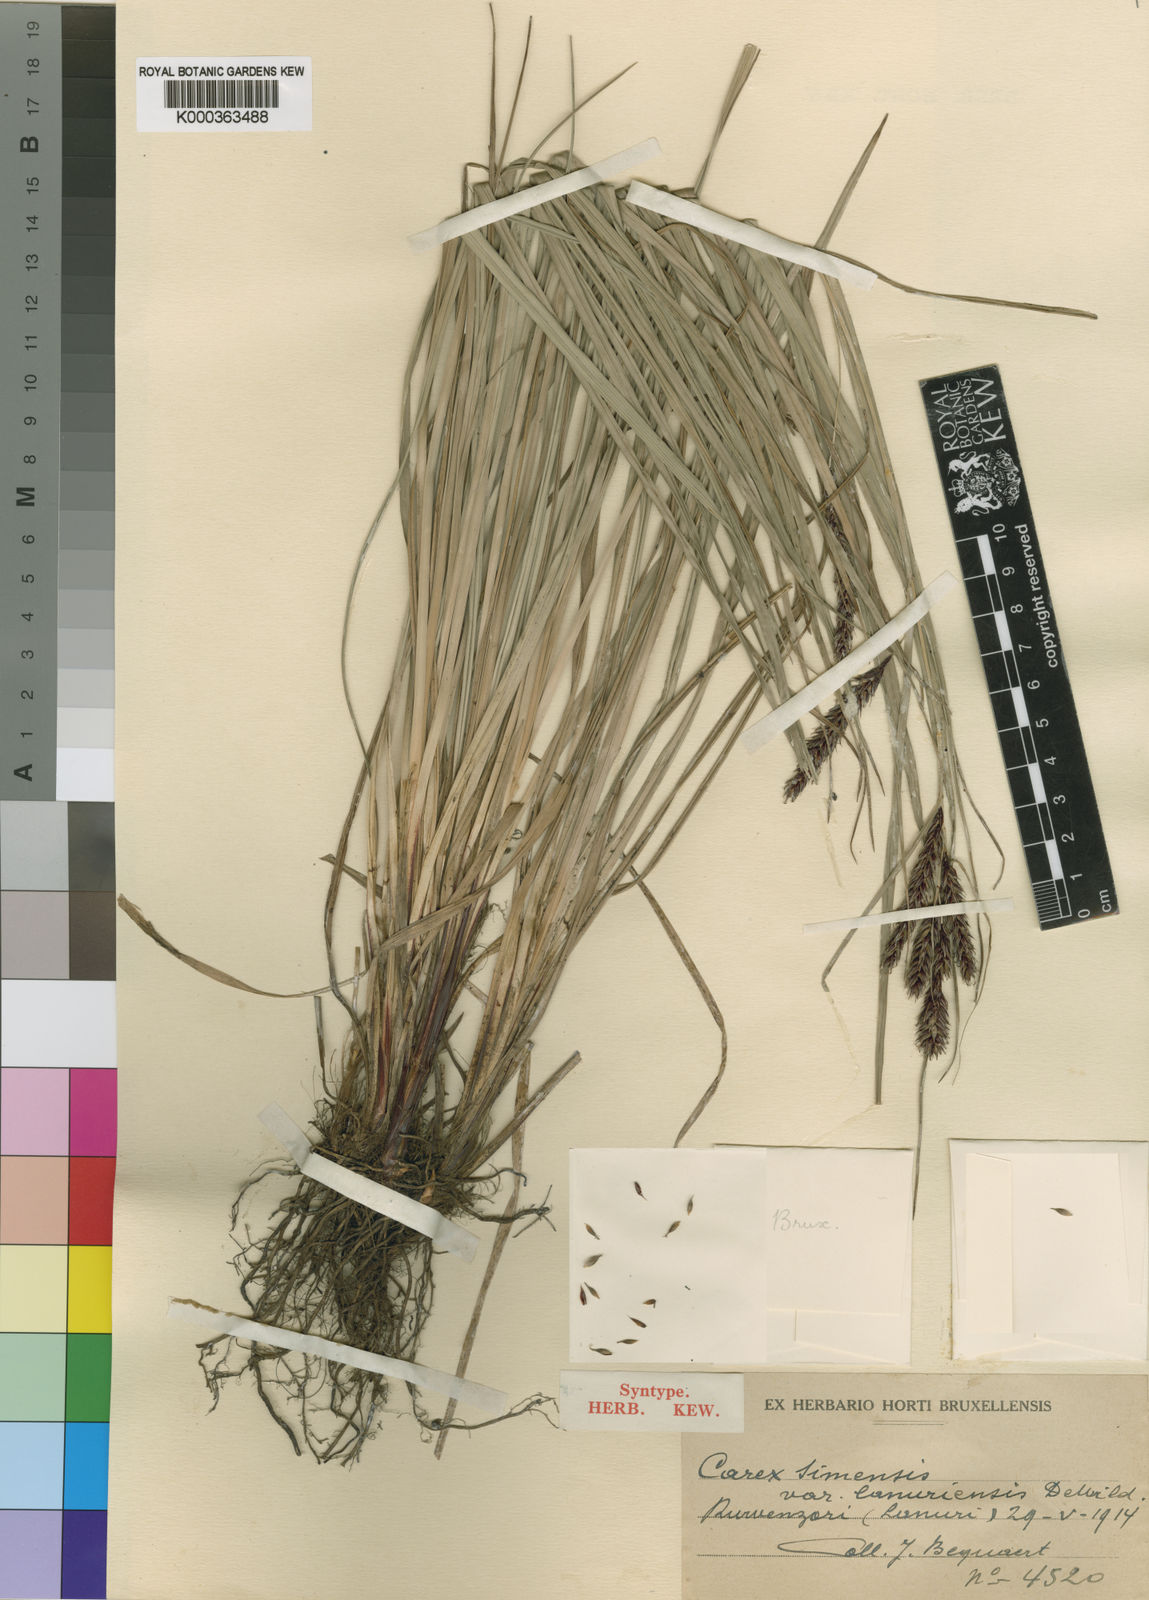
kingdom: Plantae
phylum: Tracheophyta
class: Liliopsida
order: Poales
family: Cyperaceae
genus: Carex
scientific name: Carex simensis
